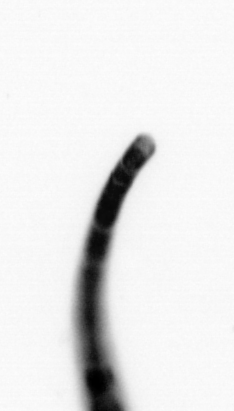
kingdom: Chromista
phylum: Ochrophyta
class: Bacillariophyceae
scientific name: Bacillariophyceae
